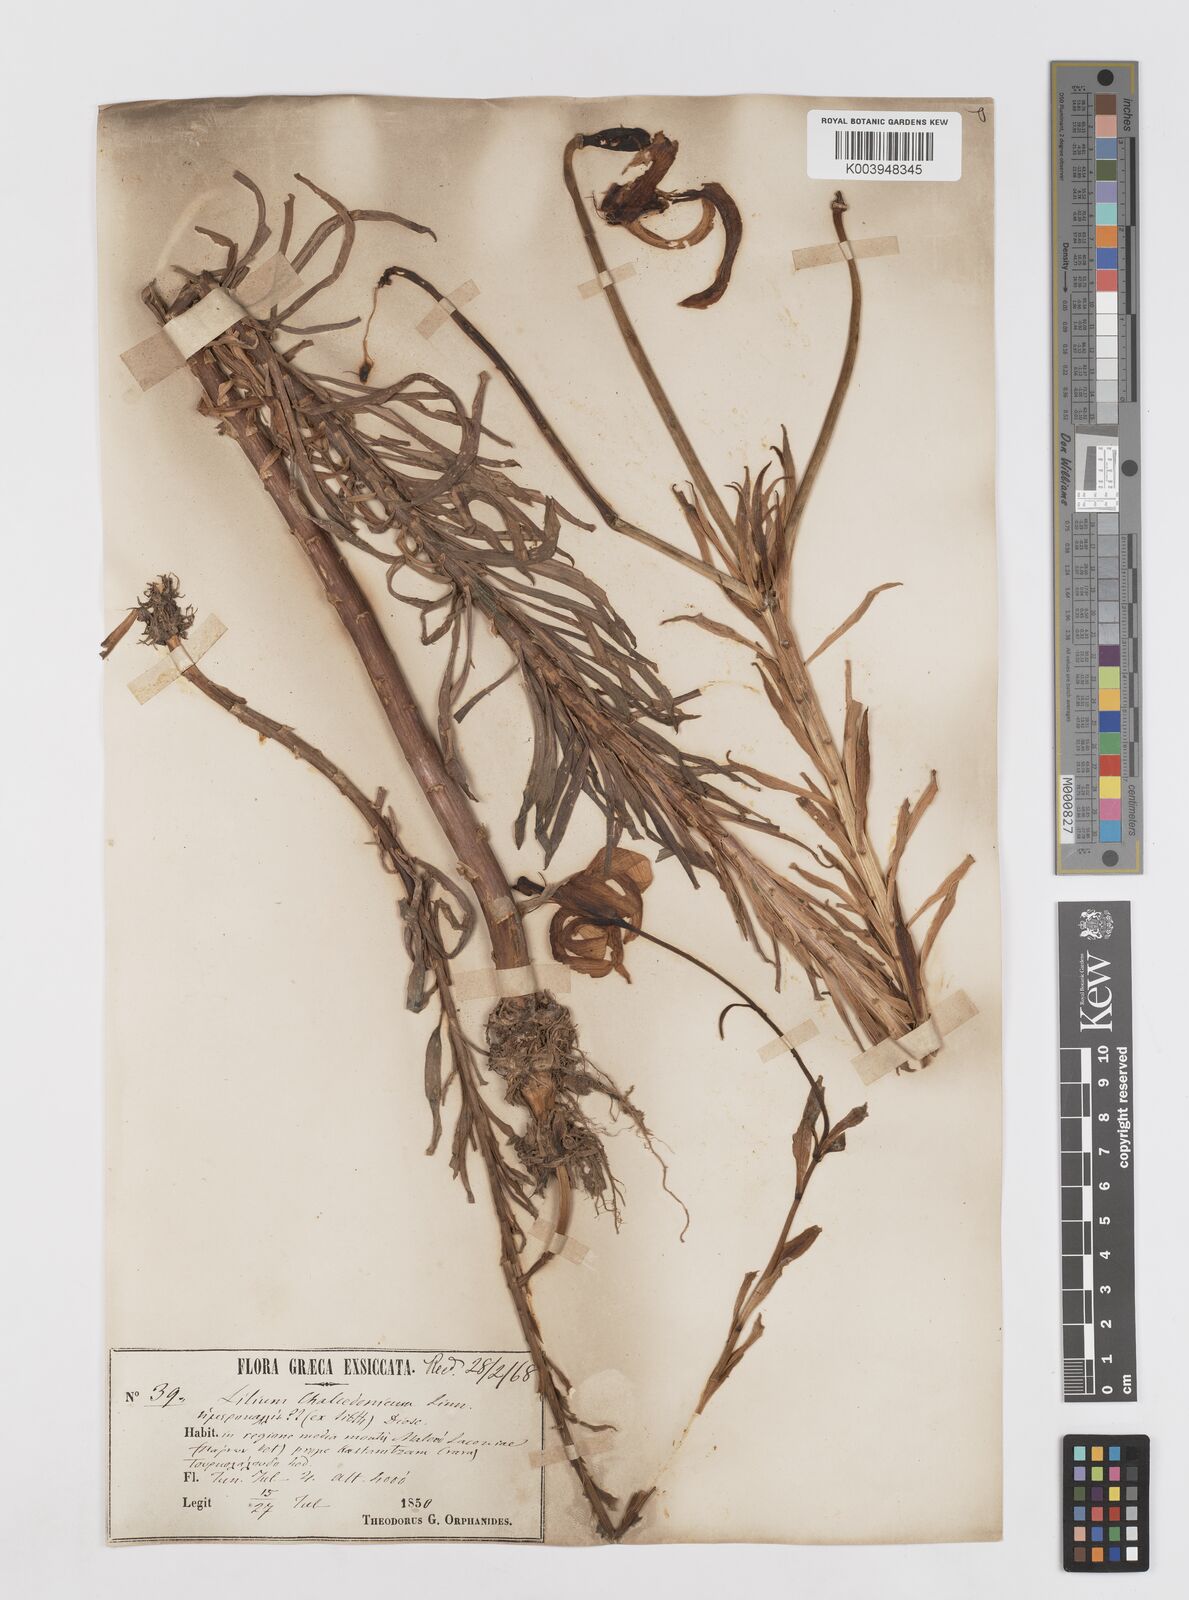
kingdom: Plantae
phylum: Tracheophyta
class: Liliopsida
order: Liliales
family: Liliaceae
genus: Lilium
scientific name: Lilium chalcedonicum
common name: Red martagon of constantinople
